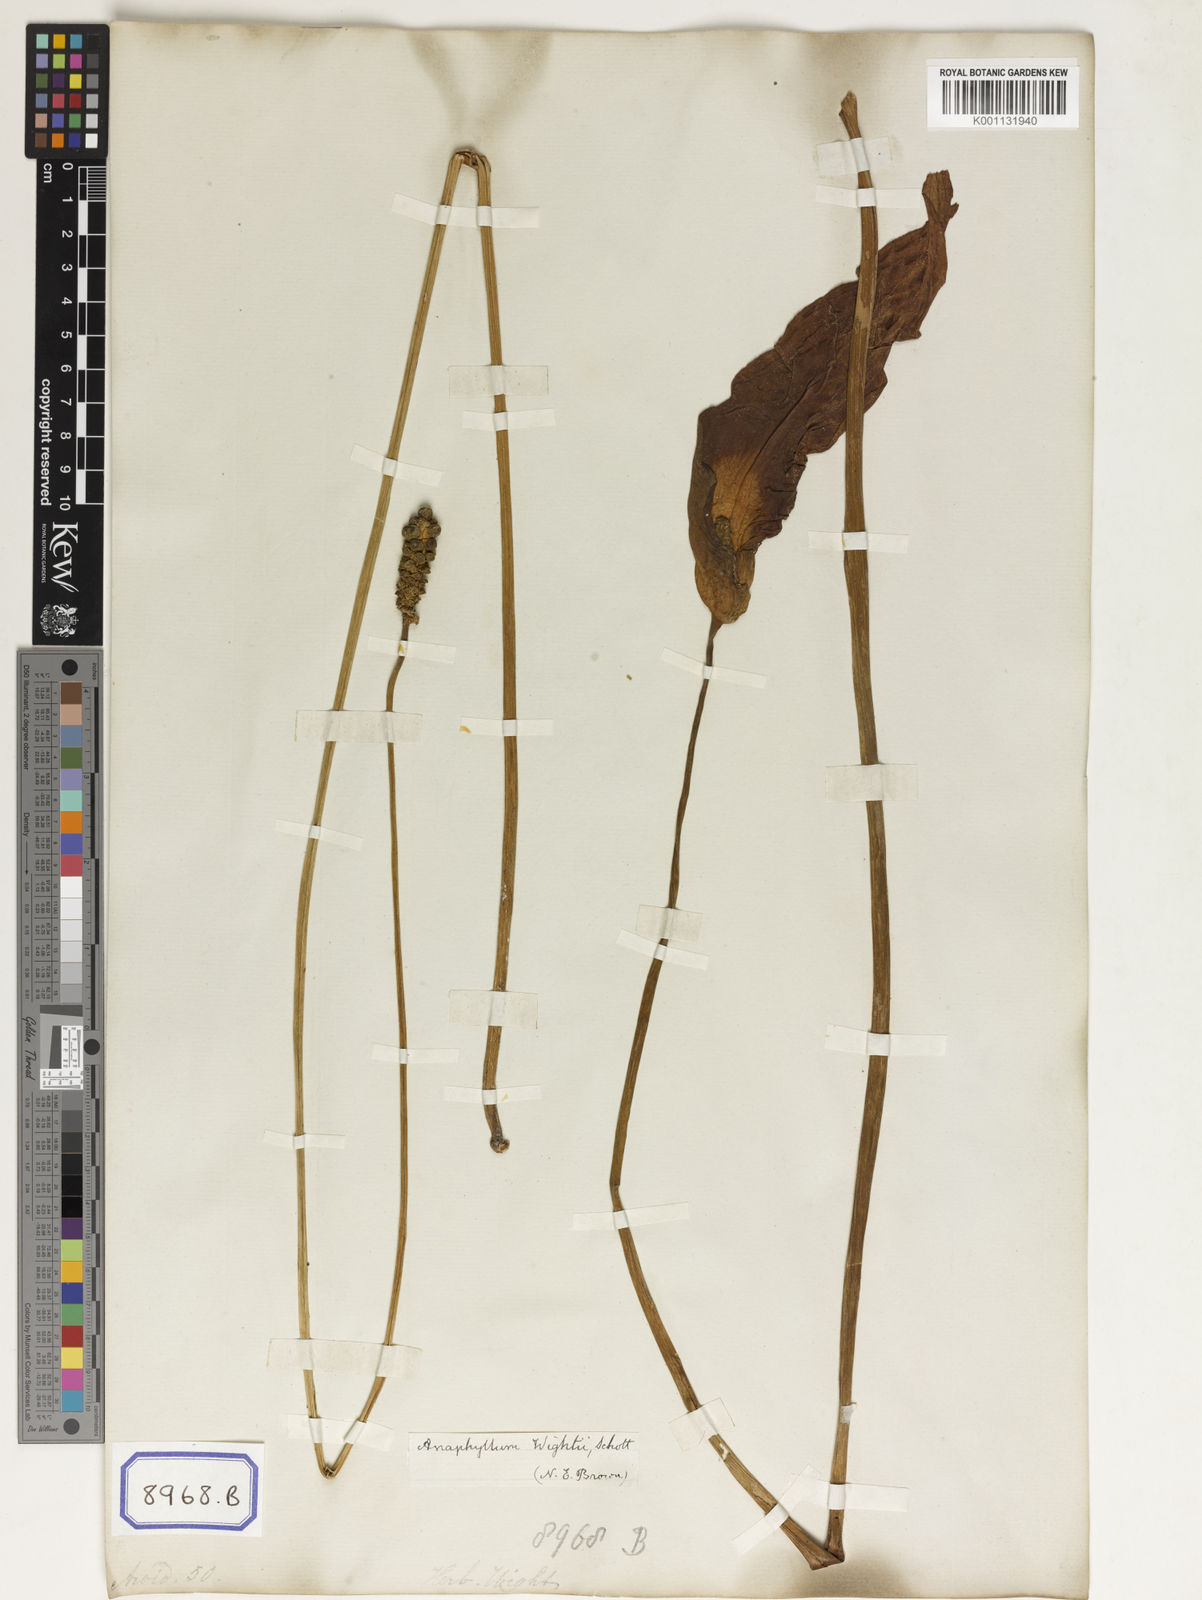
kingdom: Plantae
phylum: Tracheophyta
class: Liliopsida
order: Alismatales
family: Araceae
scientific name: Araceae
